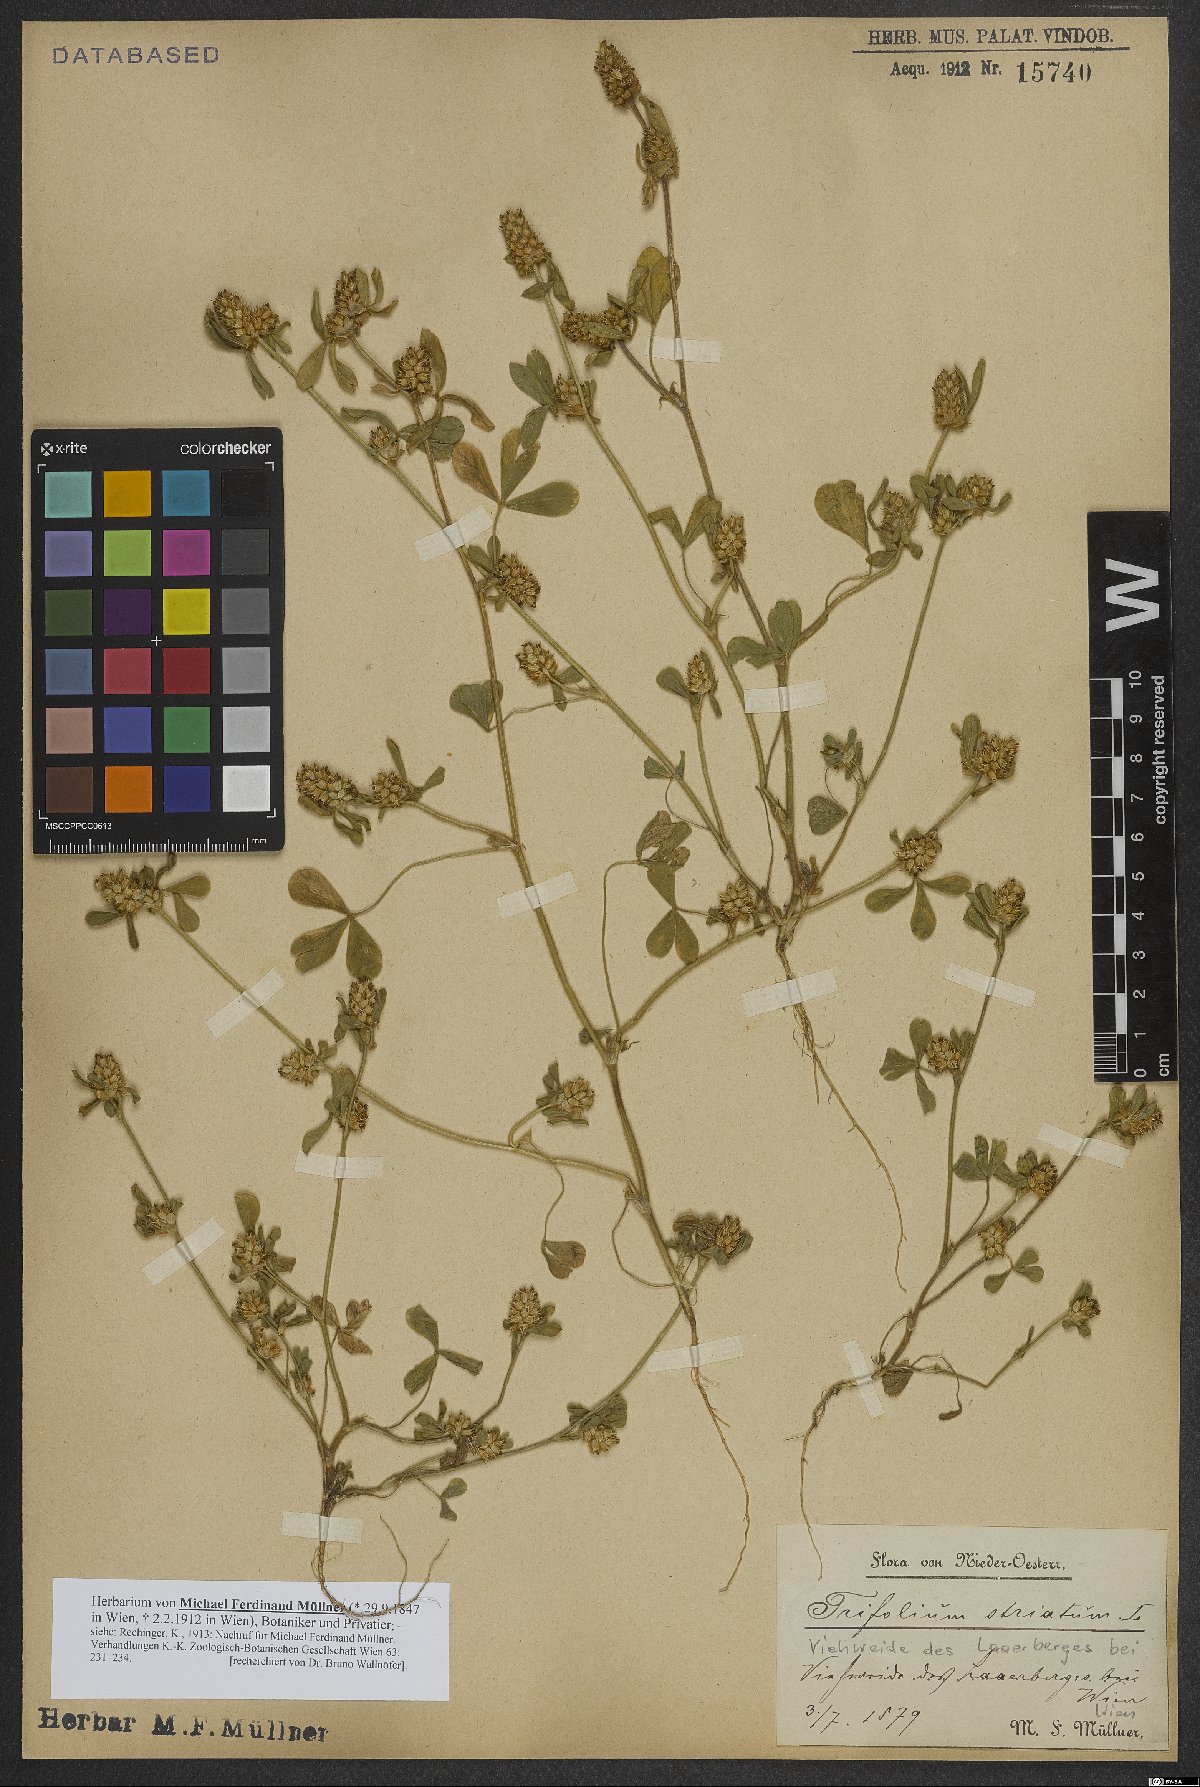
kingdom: Plantae
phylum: Tracheophyta
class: Magnoliopsida
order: Fabales
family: Fabaceae
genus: Trifolium
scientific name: Trifolium striatum
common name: Knotted clover
